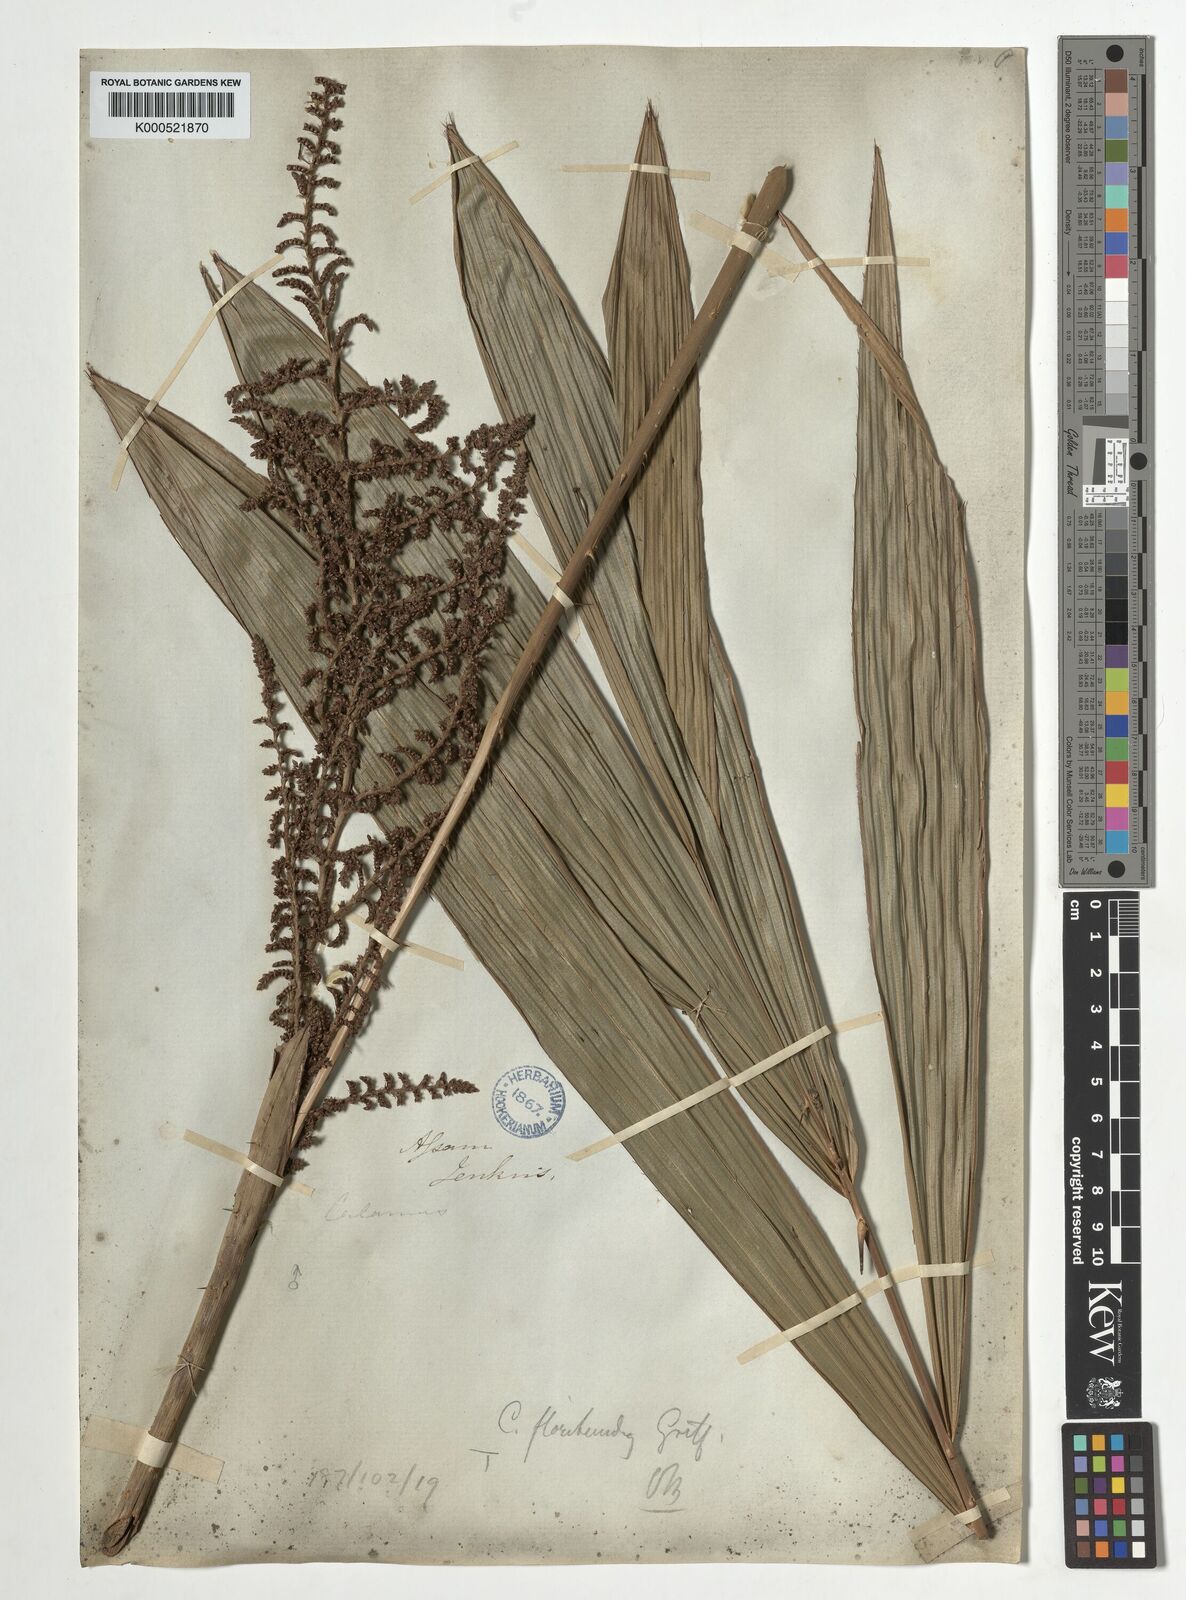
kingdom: Plantae
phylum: Tracheophyta
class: Liliopsida
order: Arecales
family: Arecaceae
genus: Calamus
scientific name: Calamus floribundus
